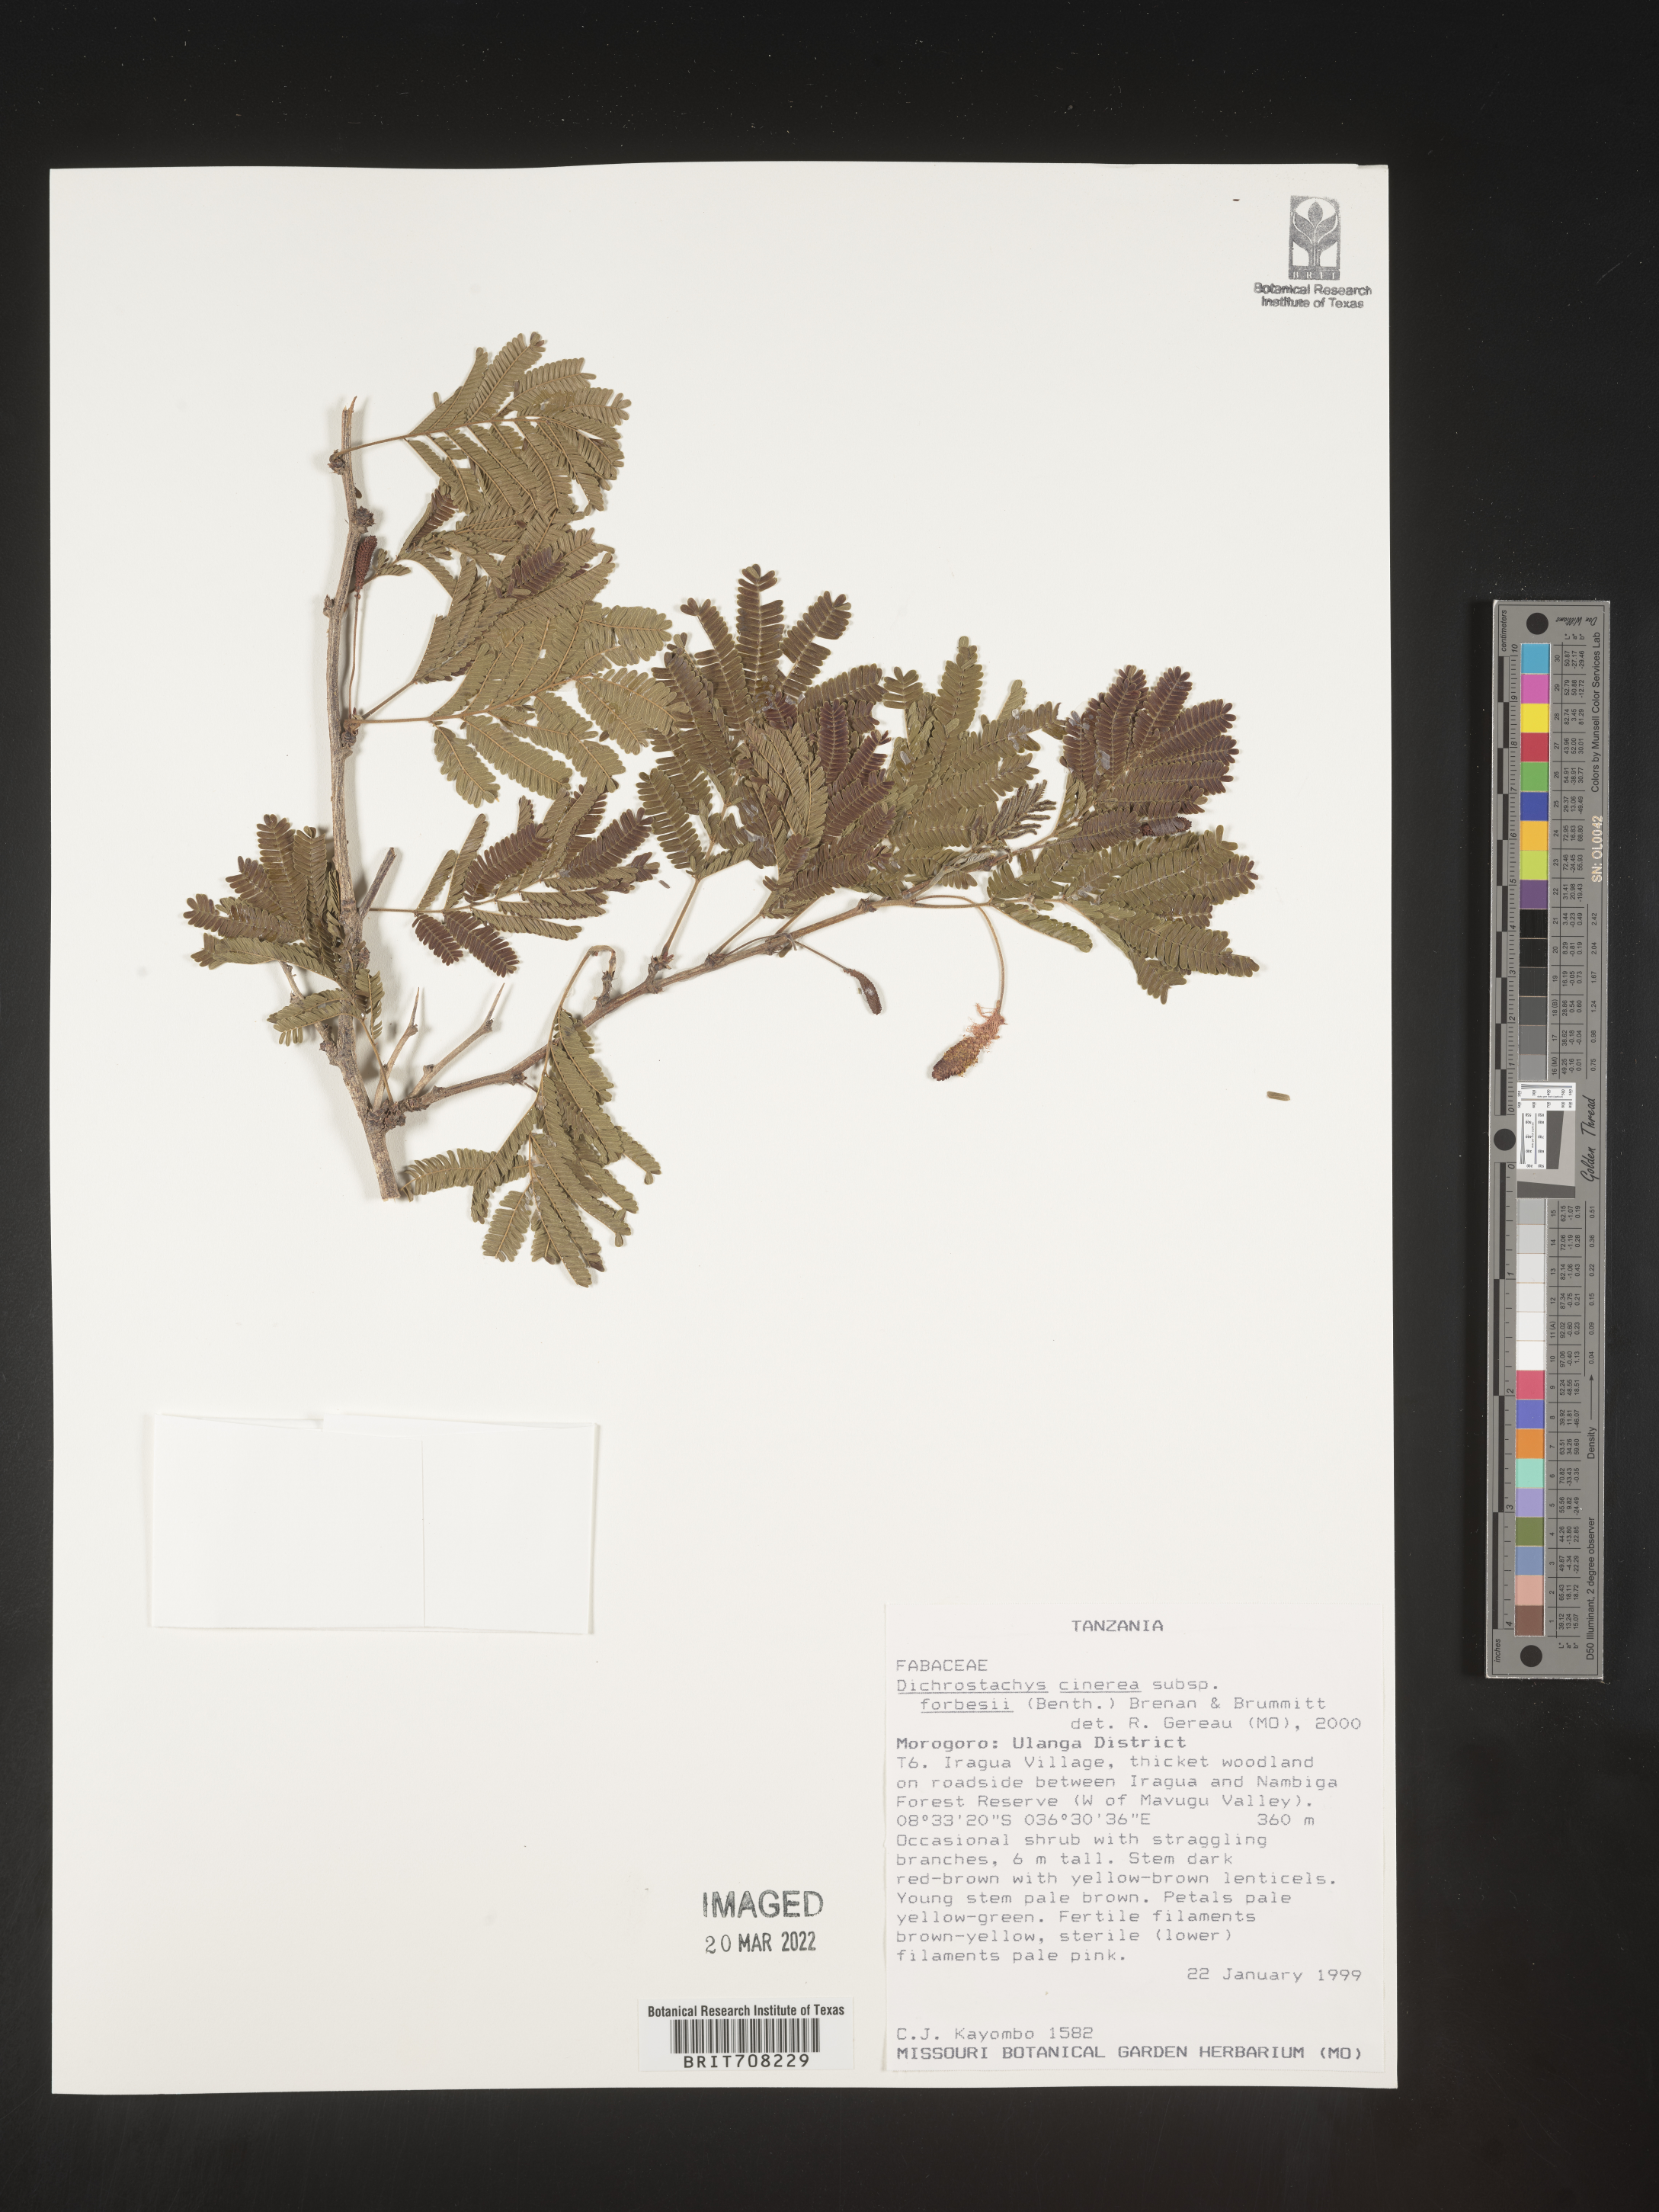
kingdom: Plantae
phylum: Tracheophyta
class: Magnoliopsida
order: Fabales
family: Fabaceae
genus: Dichrostachys
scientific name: Dichrostachys cinerea
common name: Sicklebush
